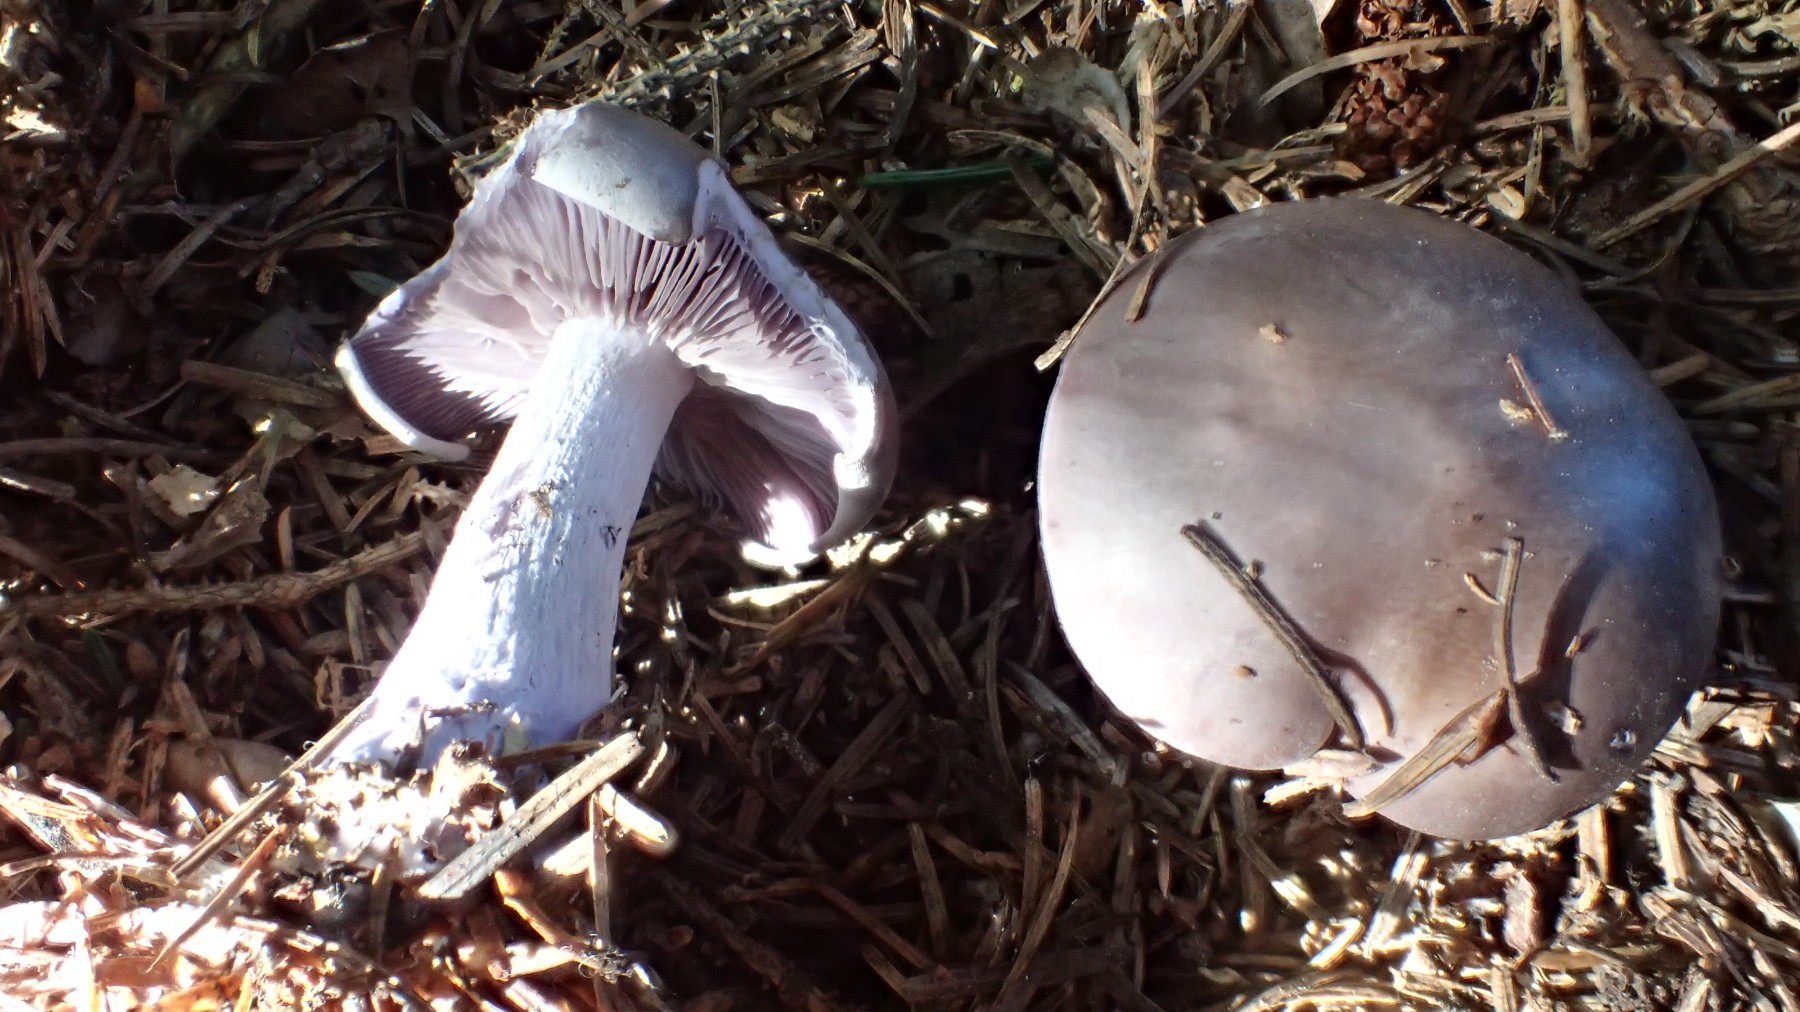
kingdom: Fungi
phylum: Basidiomycota
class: Agaricomycetes
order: Agaricales
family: Tricholomataceae
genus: Lepista
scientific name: Lepista nuda
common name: violet hekseringshat
